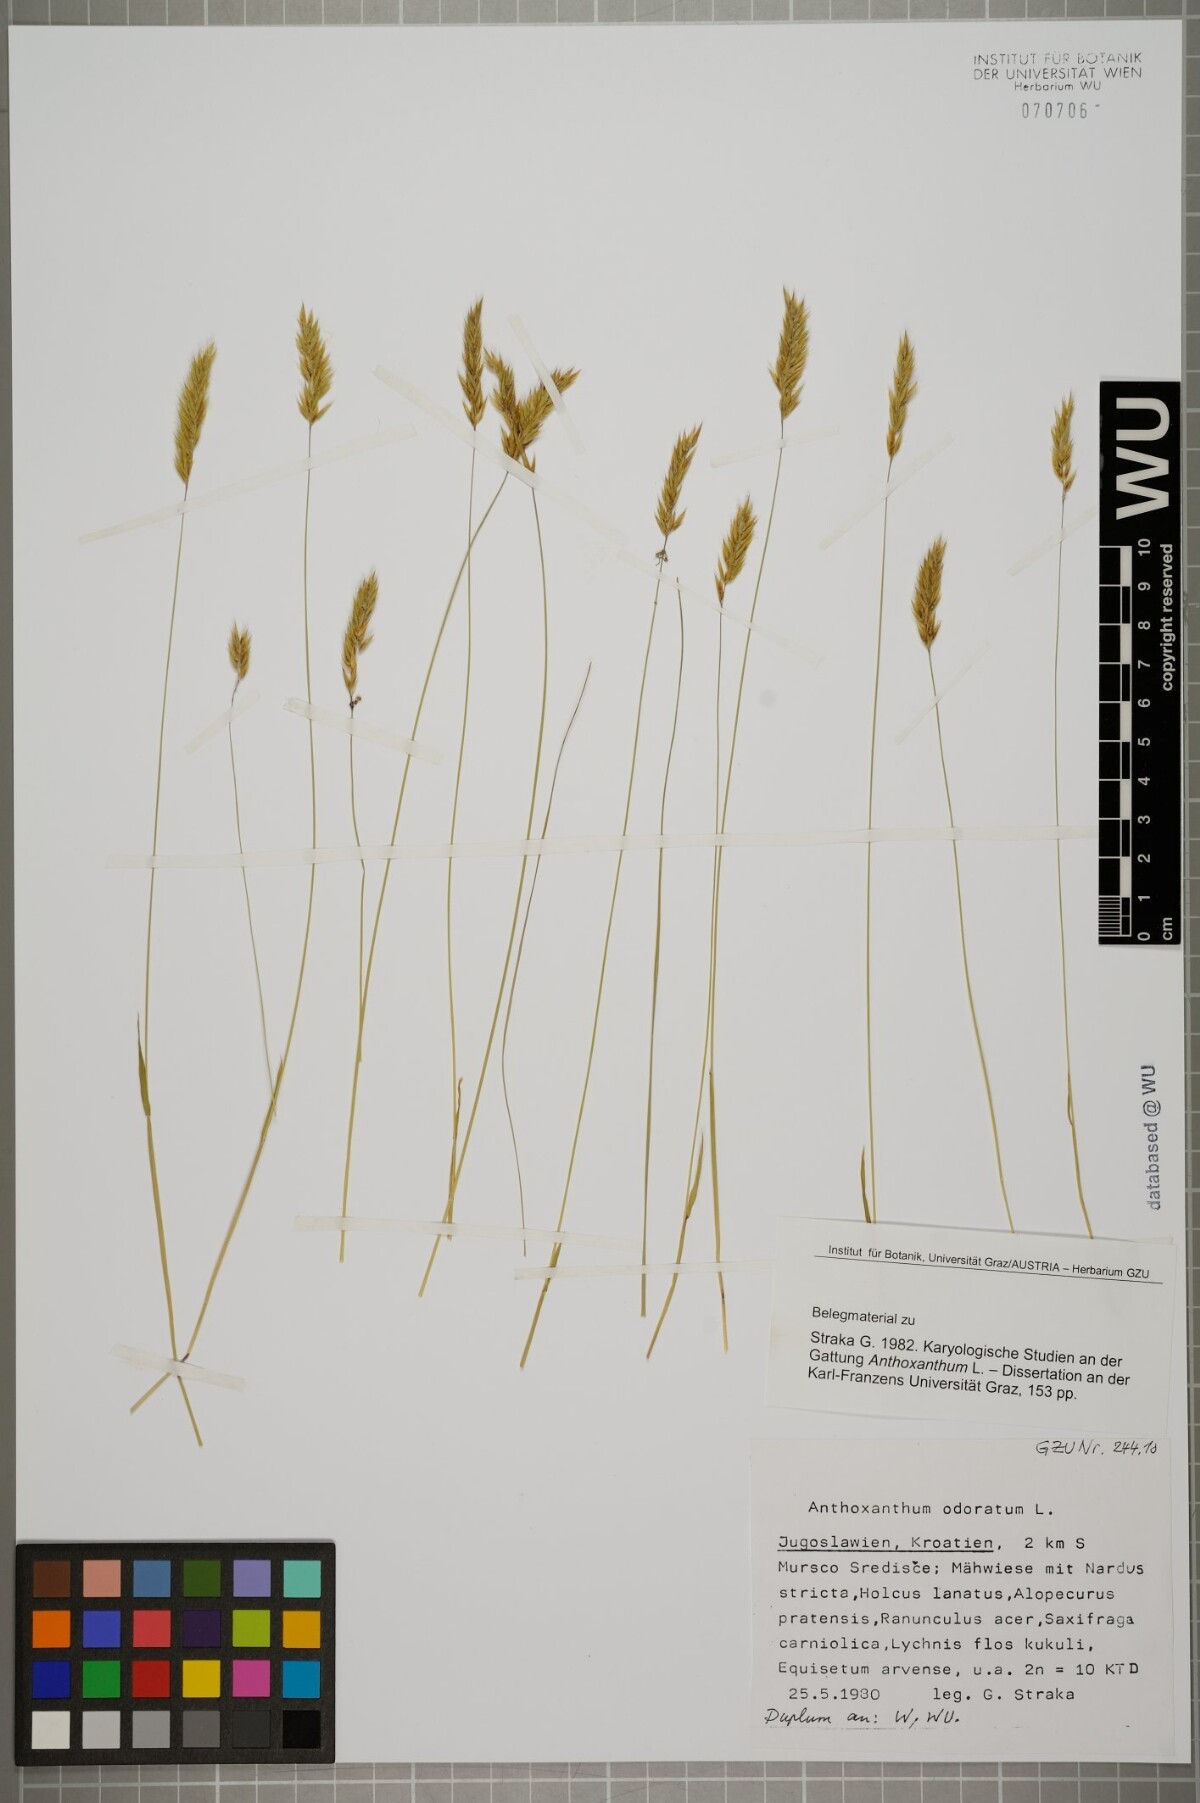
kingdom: Plantae
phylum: Tracheophyta
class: Liliopsida
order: Poales
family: Poaceae
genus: Anthoxanthum
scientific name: Anthoxanthum odoratum
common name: Sweet vernalgrass
